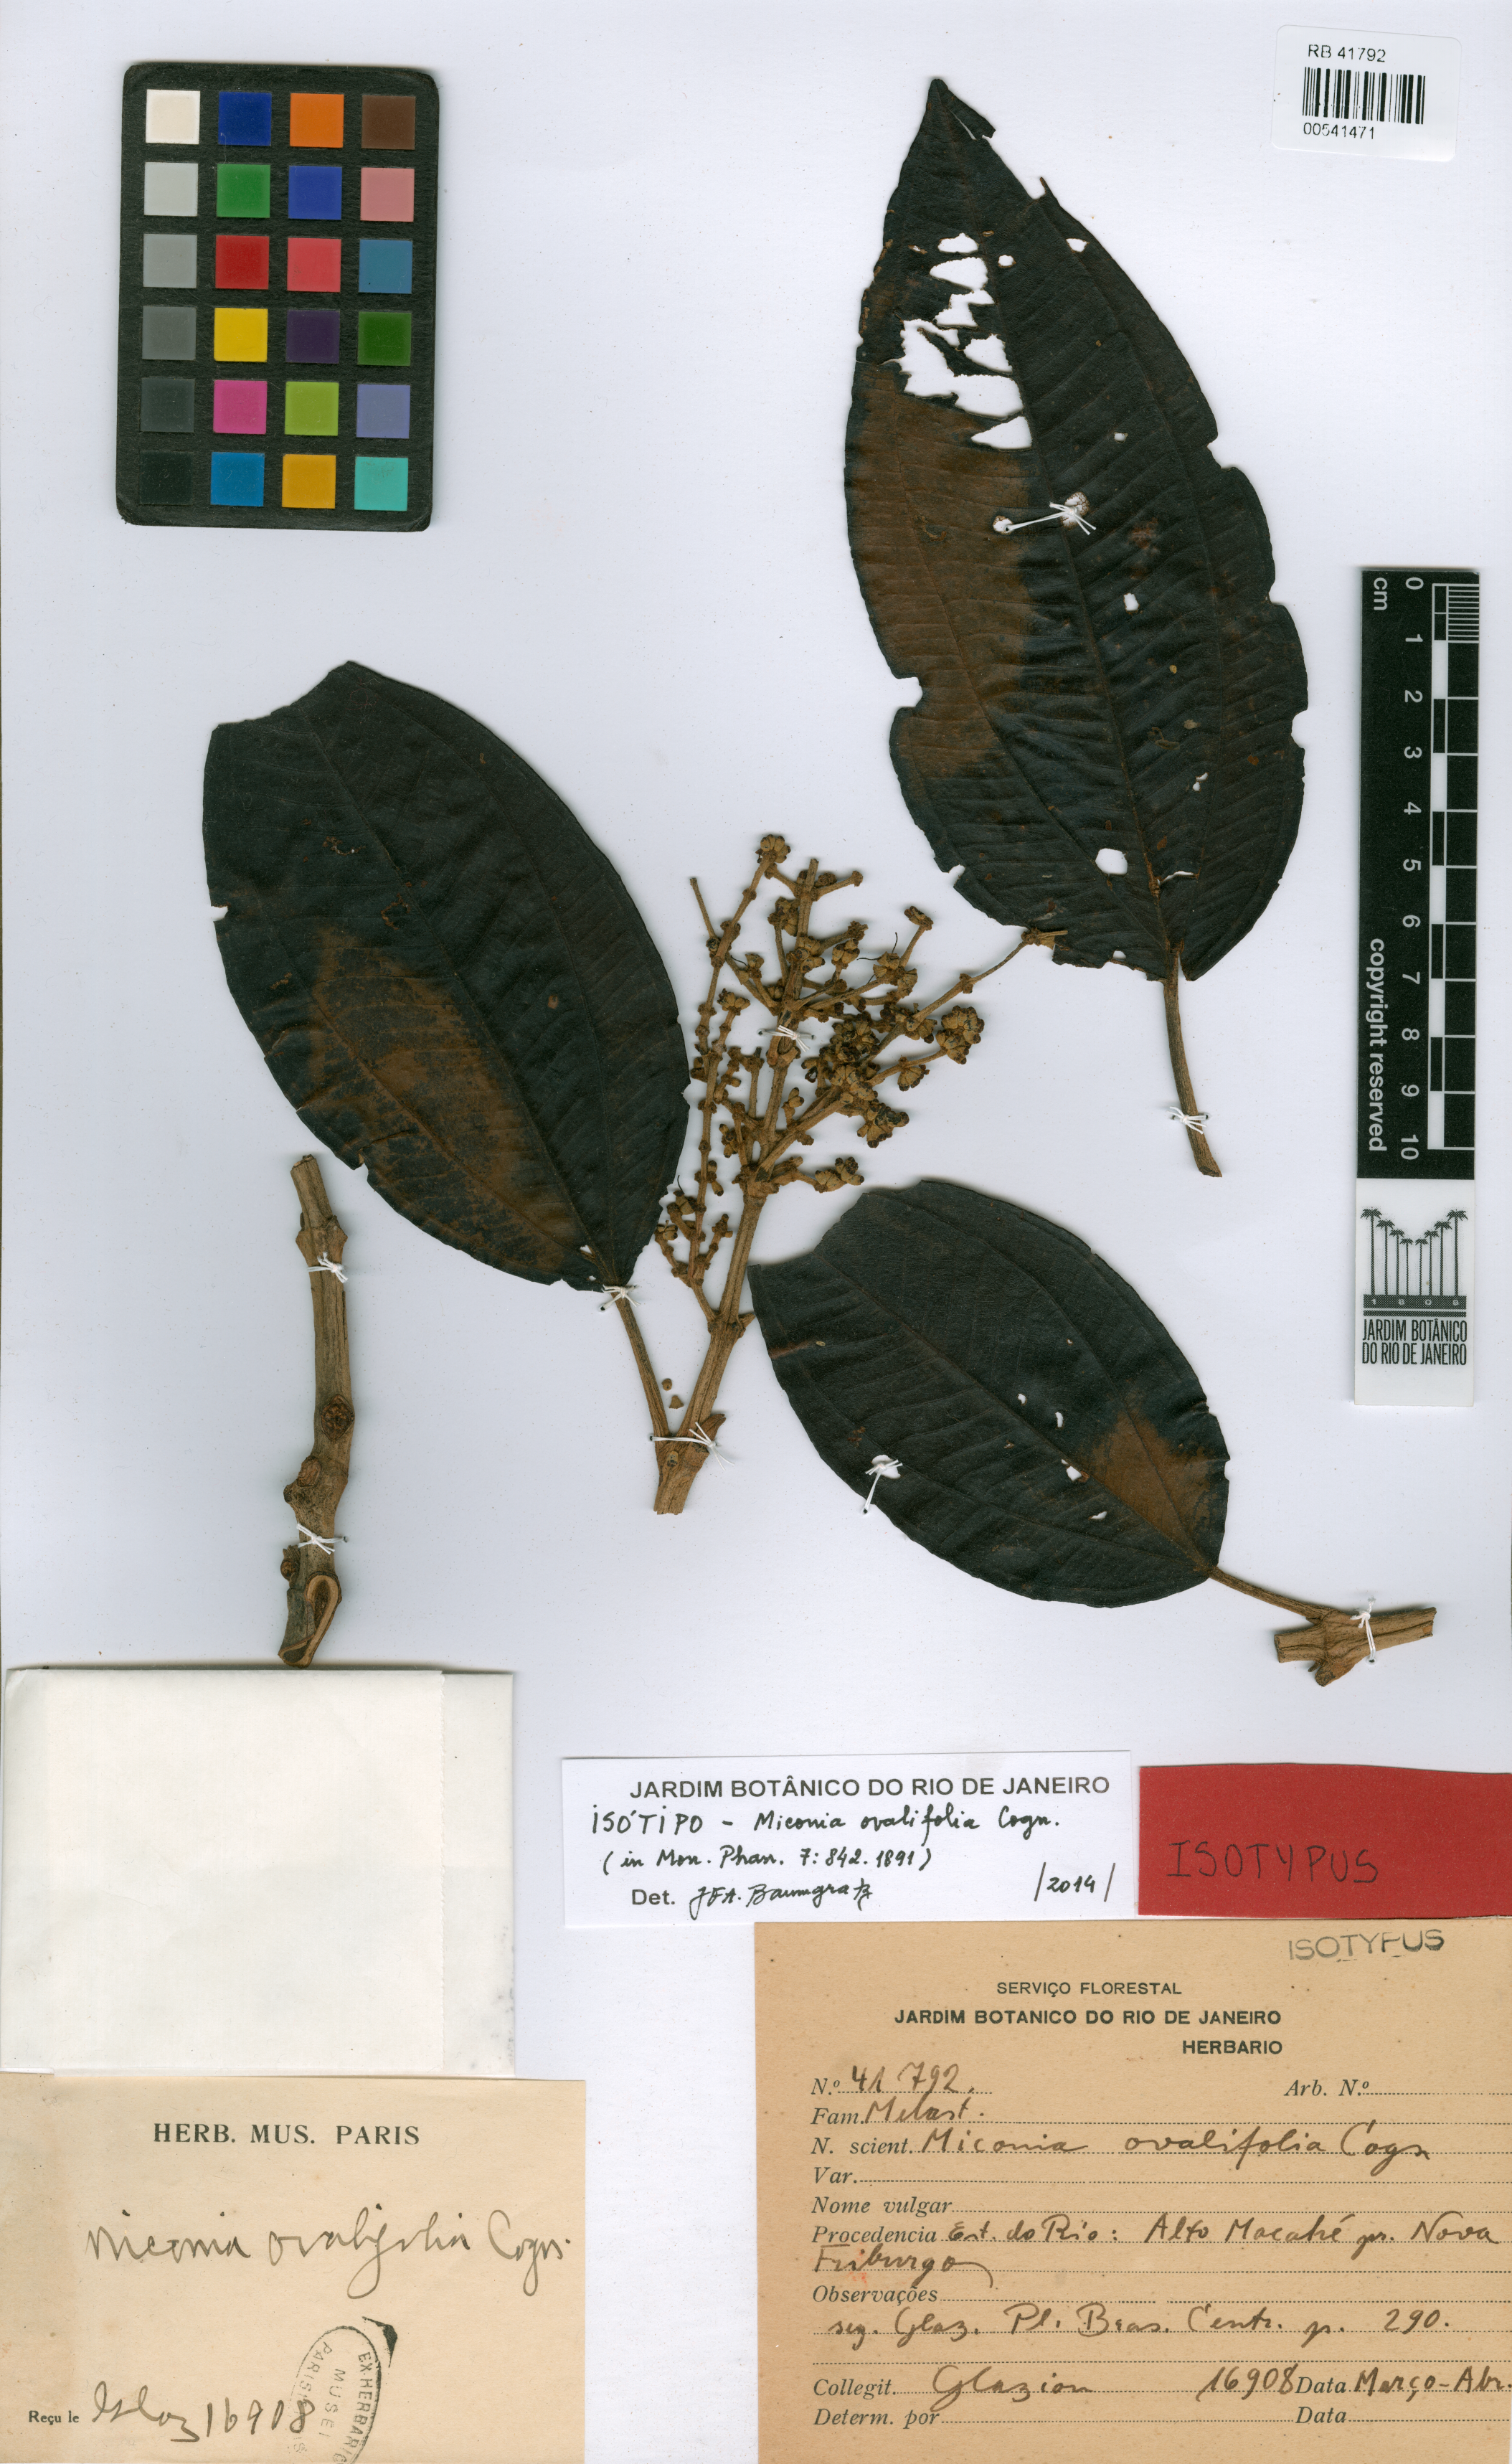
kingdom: Plantae
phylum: Tracheophyta
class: Magnoliopsida
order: Myrtales
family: Melastomataceae
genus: Miconia
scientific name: Miconia formosa
